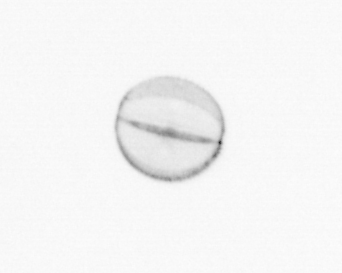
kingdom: Chromista
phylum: Ochrophyta
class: Bacillariophyceae
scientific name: Bacillariophyceae
